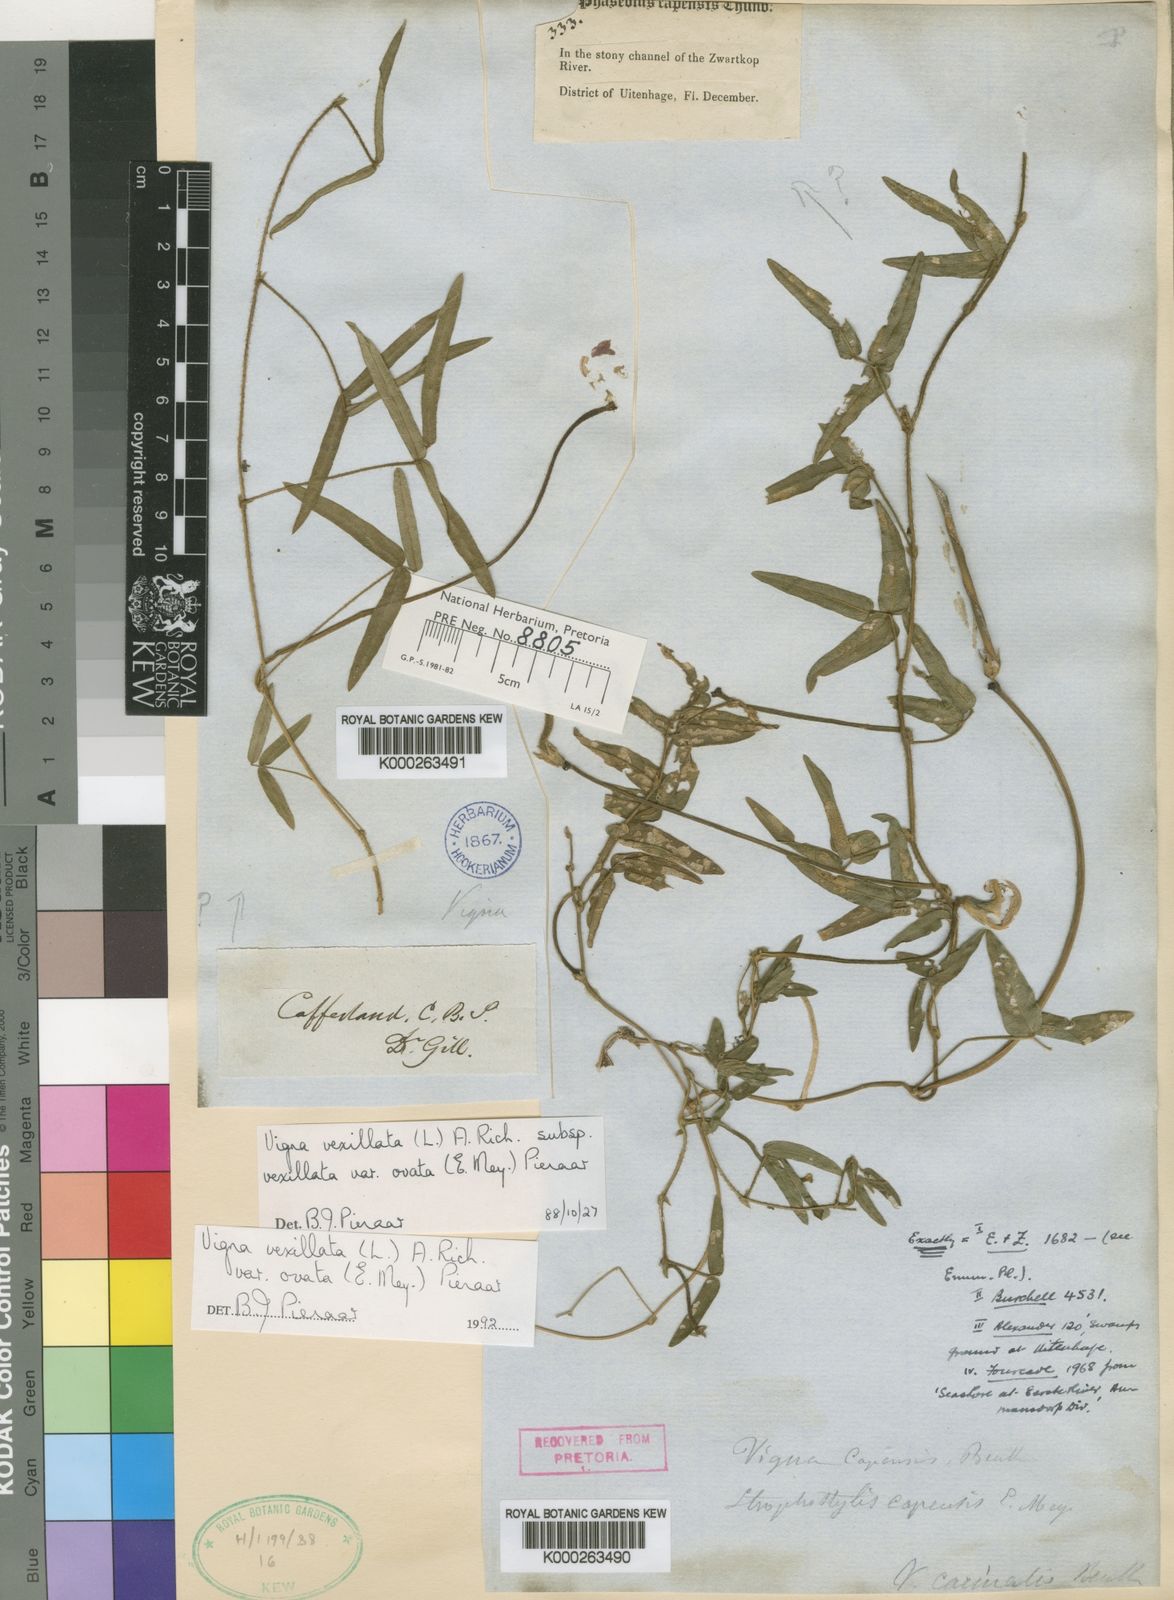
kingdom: Plantae
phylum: Tracheophyta
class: Magnoliopsida
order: Fabales
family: Fabaceae
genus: Vigna
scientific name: Vigna vexillata
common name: Zombi pea
